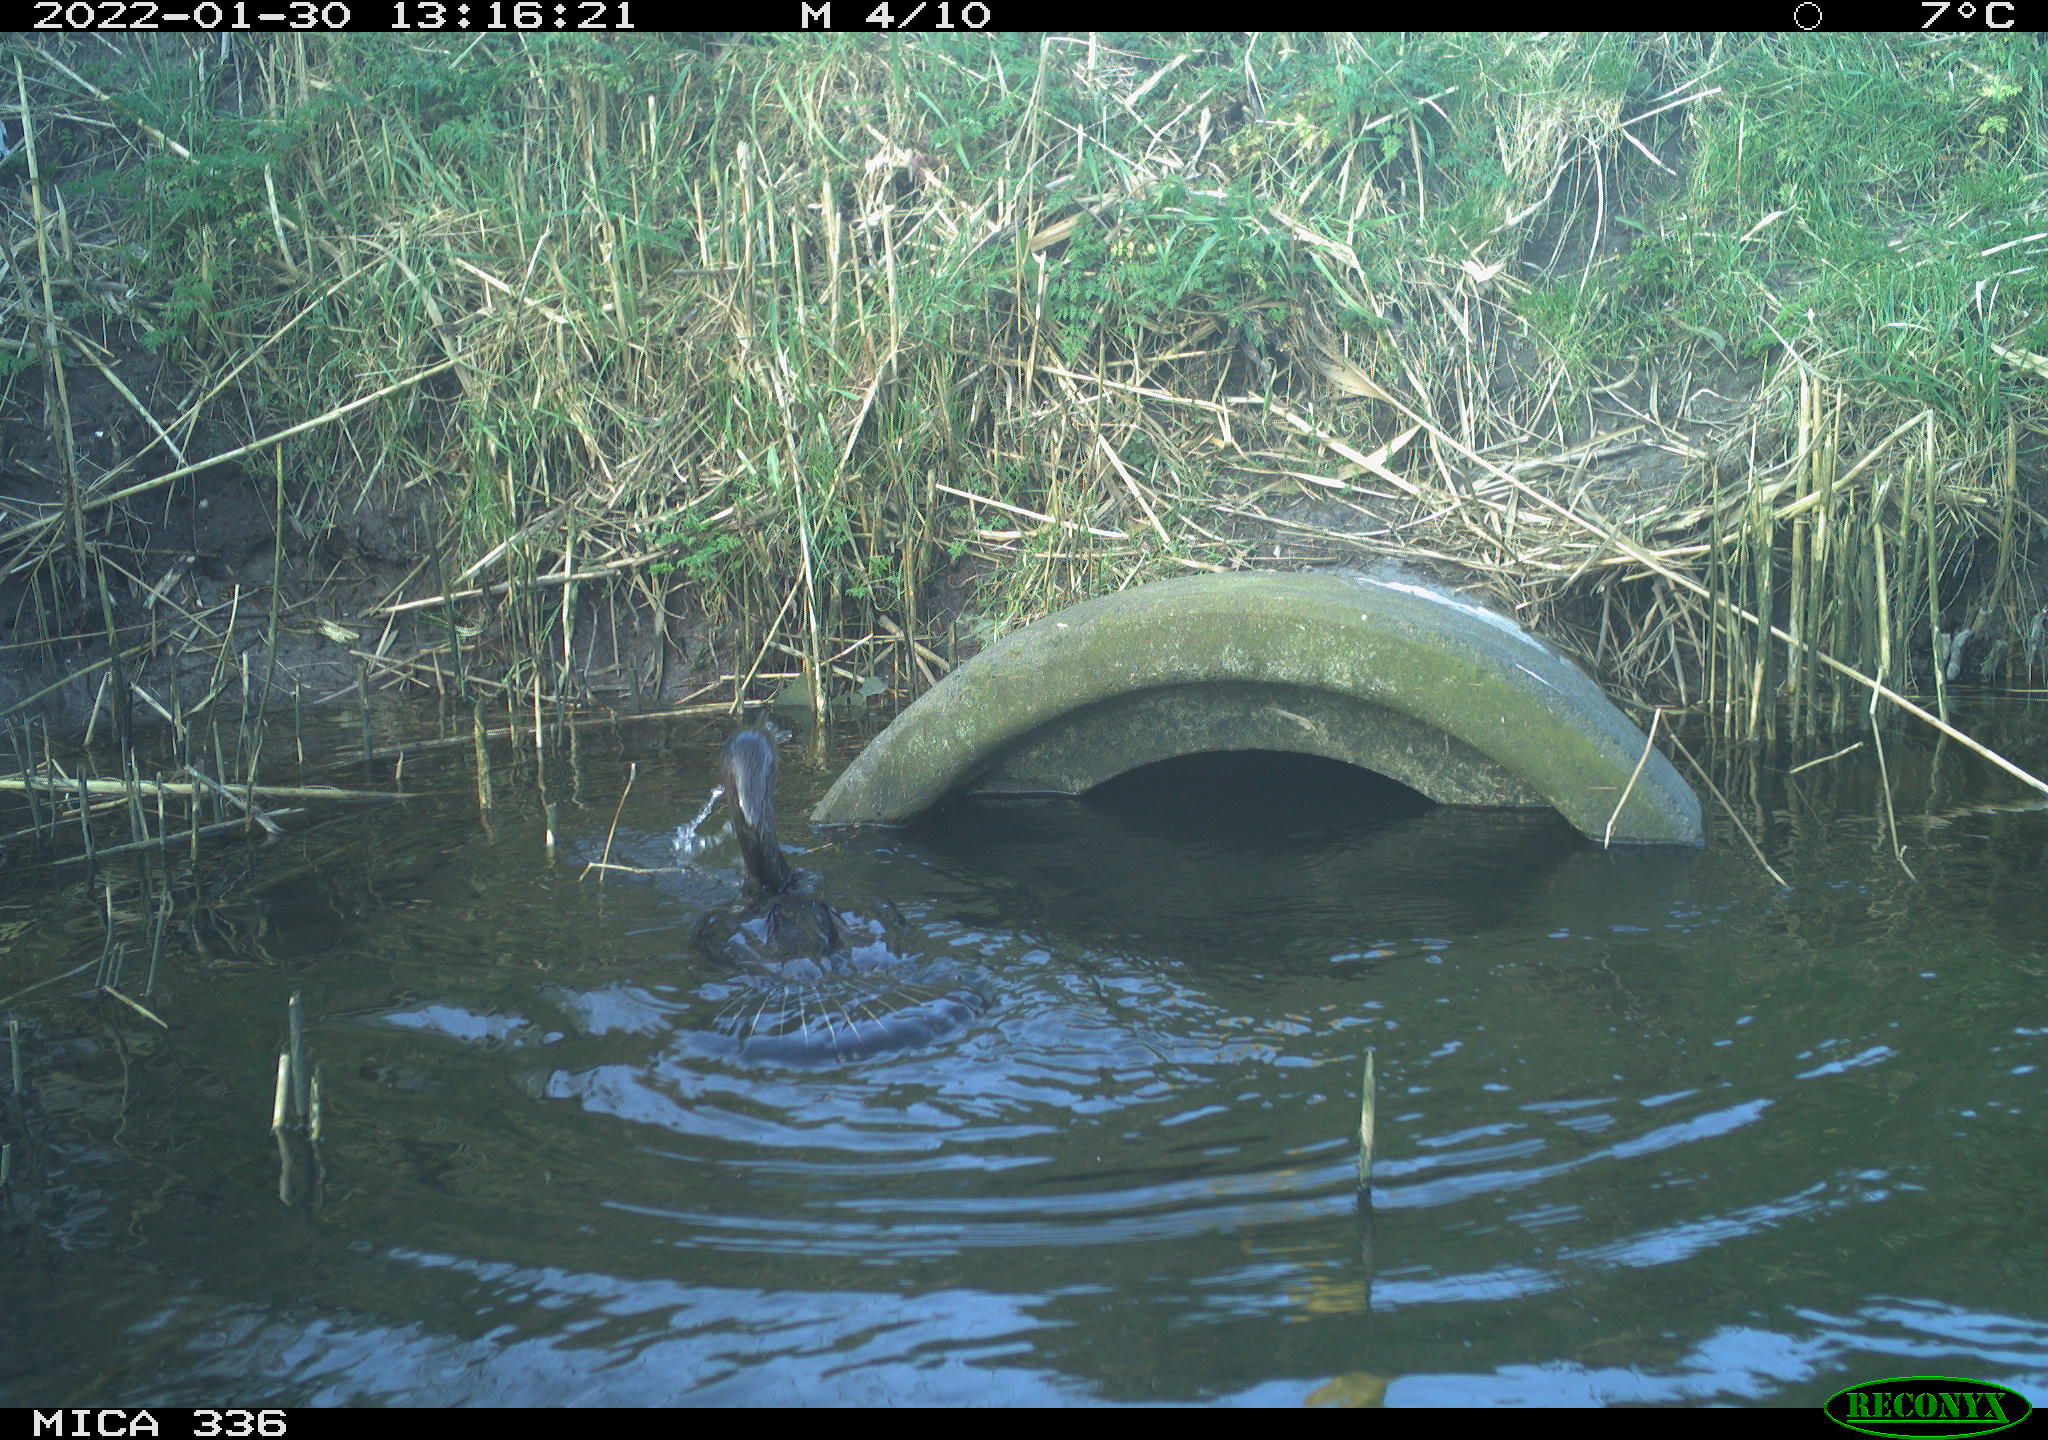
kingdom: Animalia
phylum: Chordata
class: Aves
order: Suliformes
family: Phalacrocoracidae
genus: Phalacrocorax
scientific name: Phalacrocorax carbo
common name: Great cormorant
